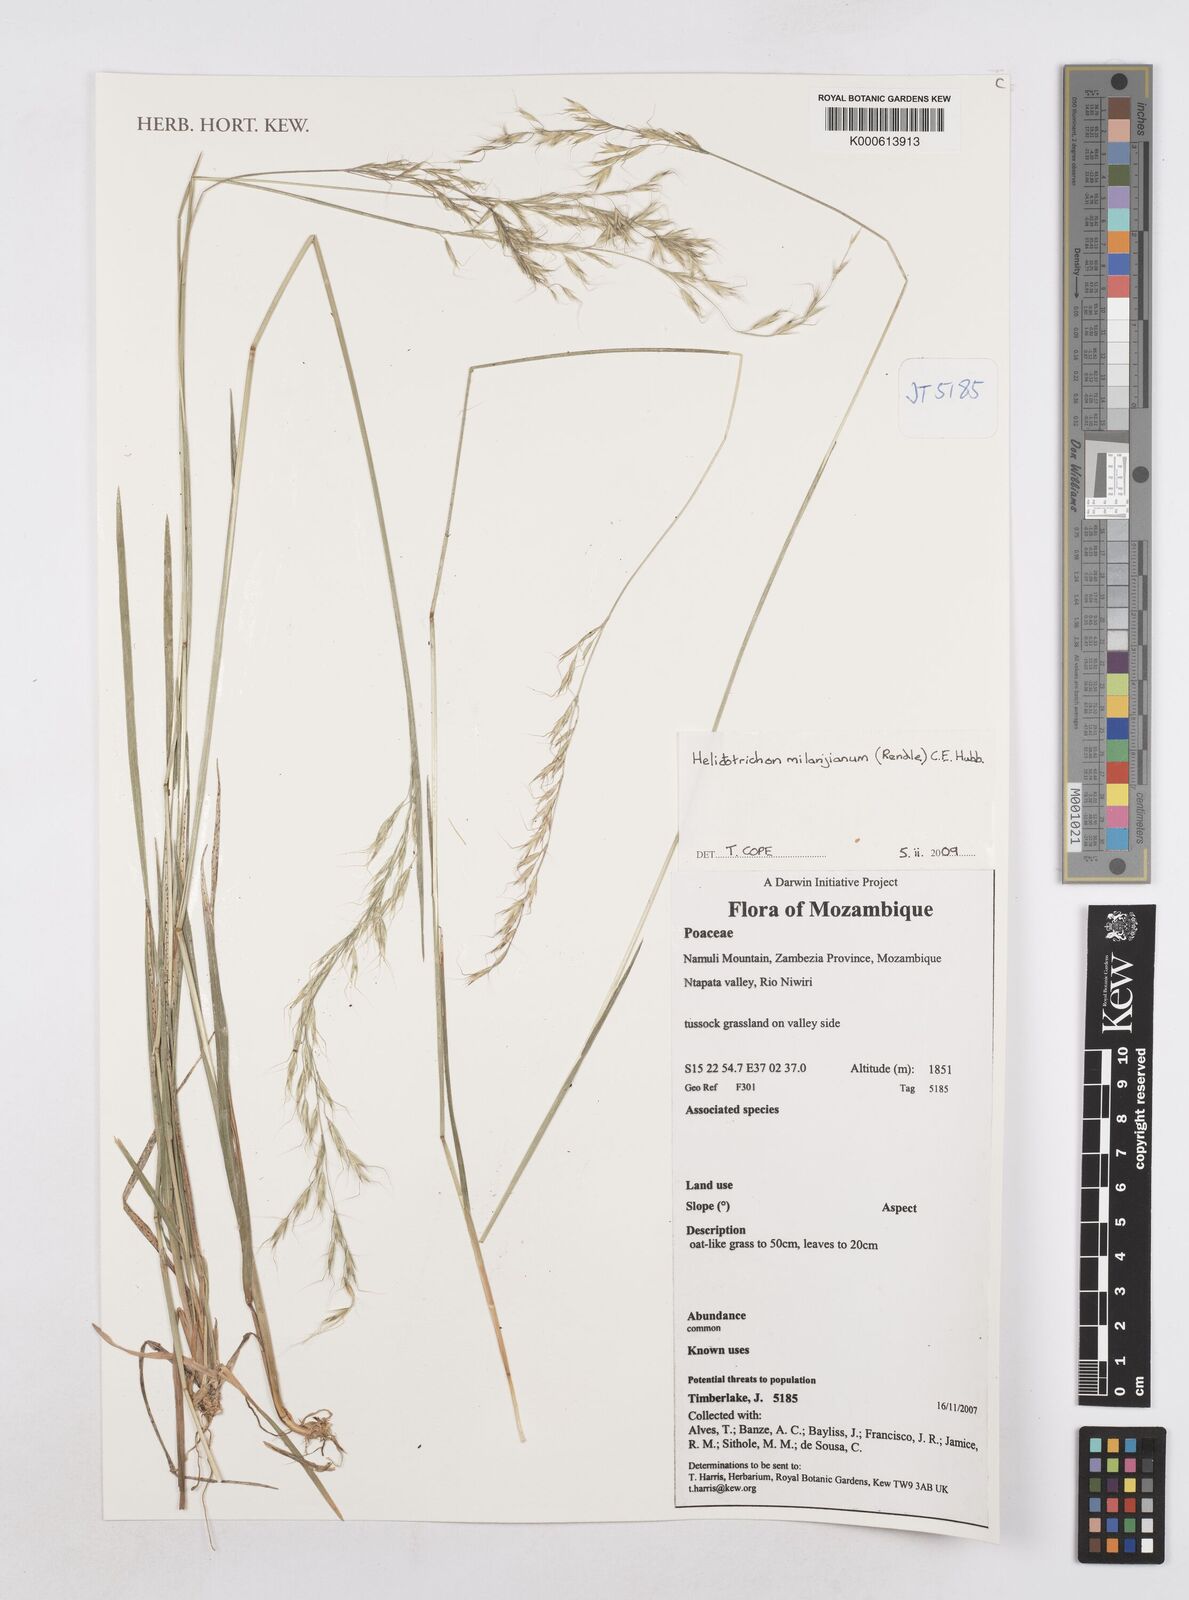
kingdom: Plantae
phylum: Tracheophyta
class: Liliopsida
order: Poales
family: Poaceae
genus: Trisetopsis
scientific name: Trisetopsis milanjiana
